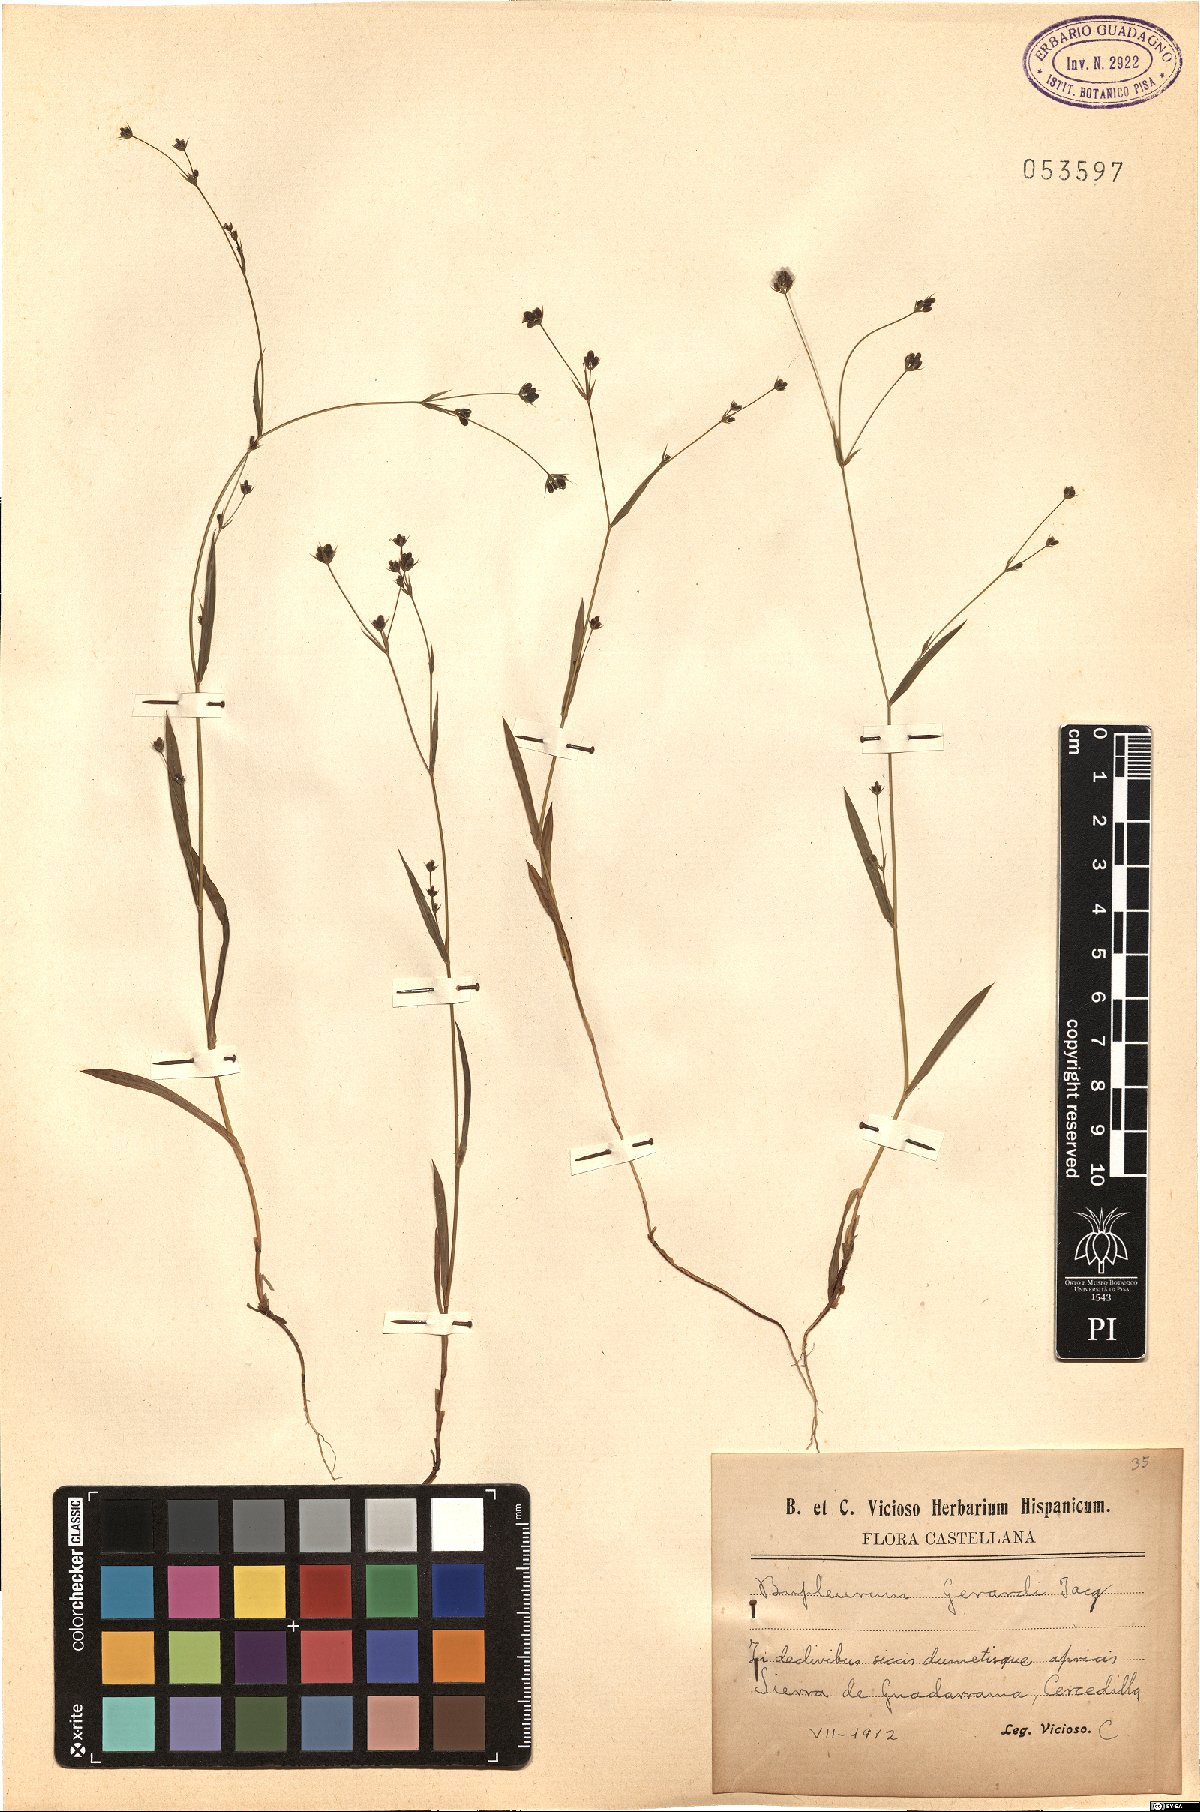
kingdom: Plantae
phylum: Tracheophyta
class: Magnoliopsida
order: Apiales
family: Apiaceae
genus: Bupleurum
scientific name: Bupleurum gerardi
